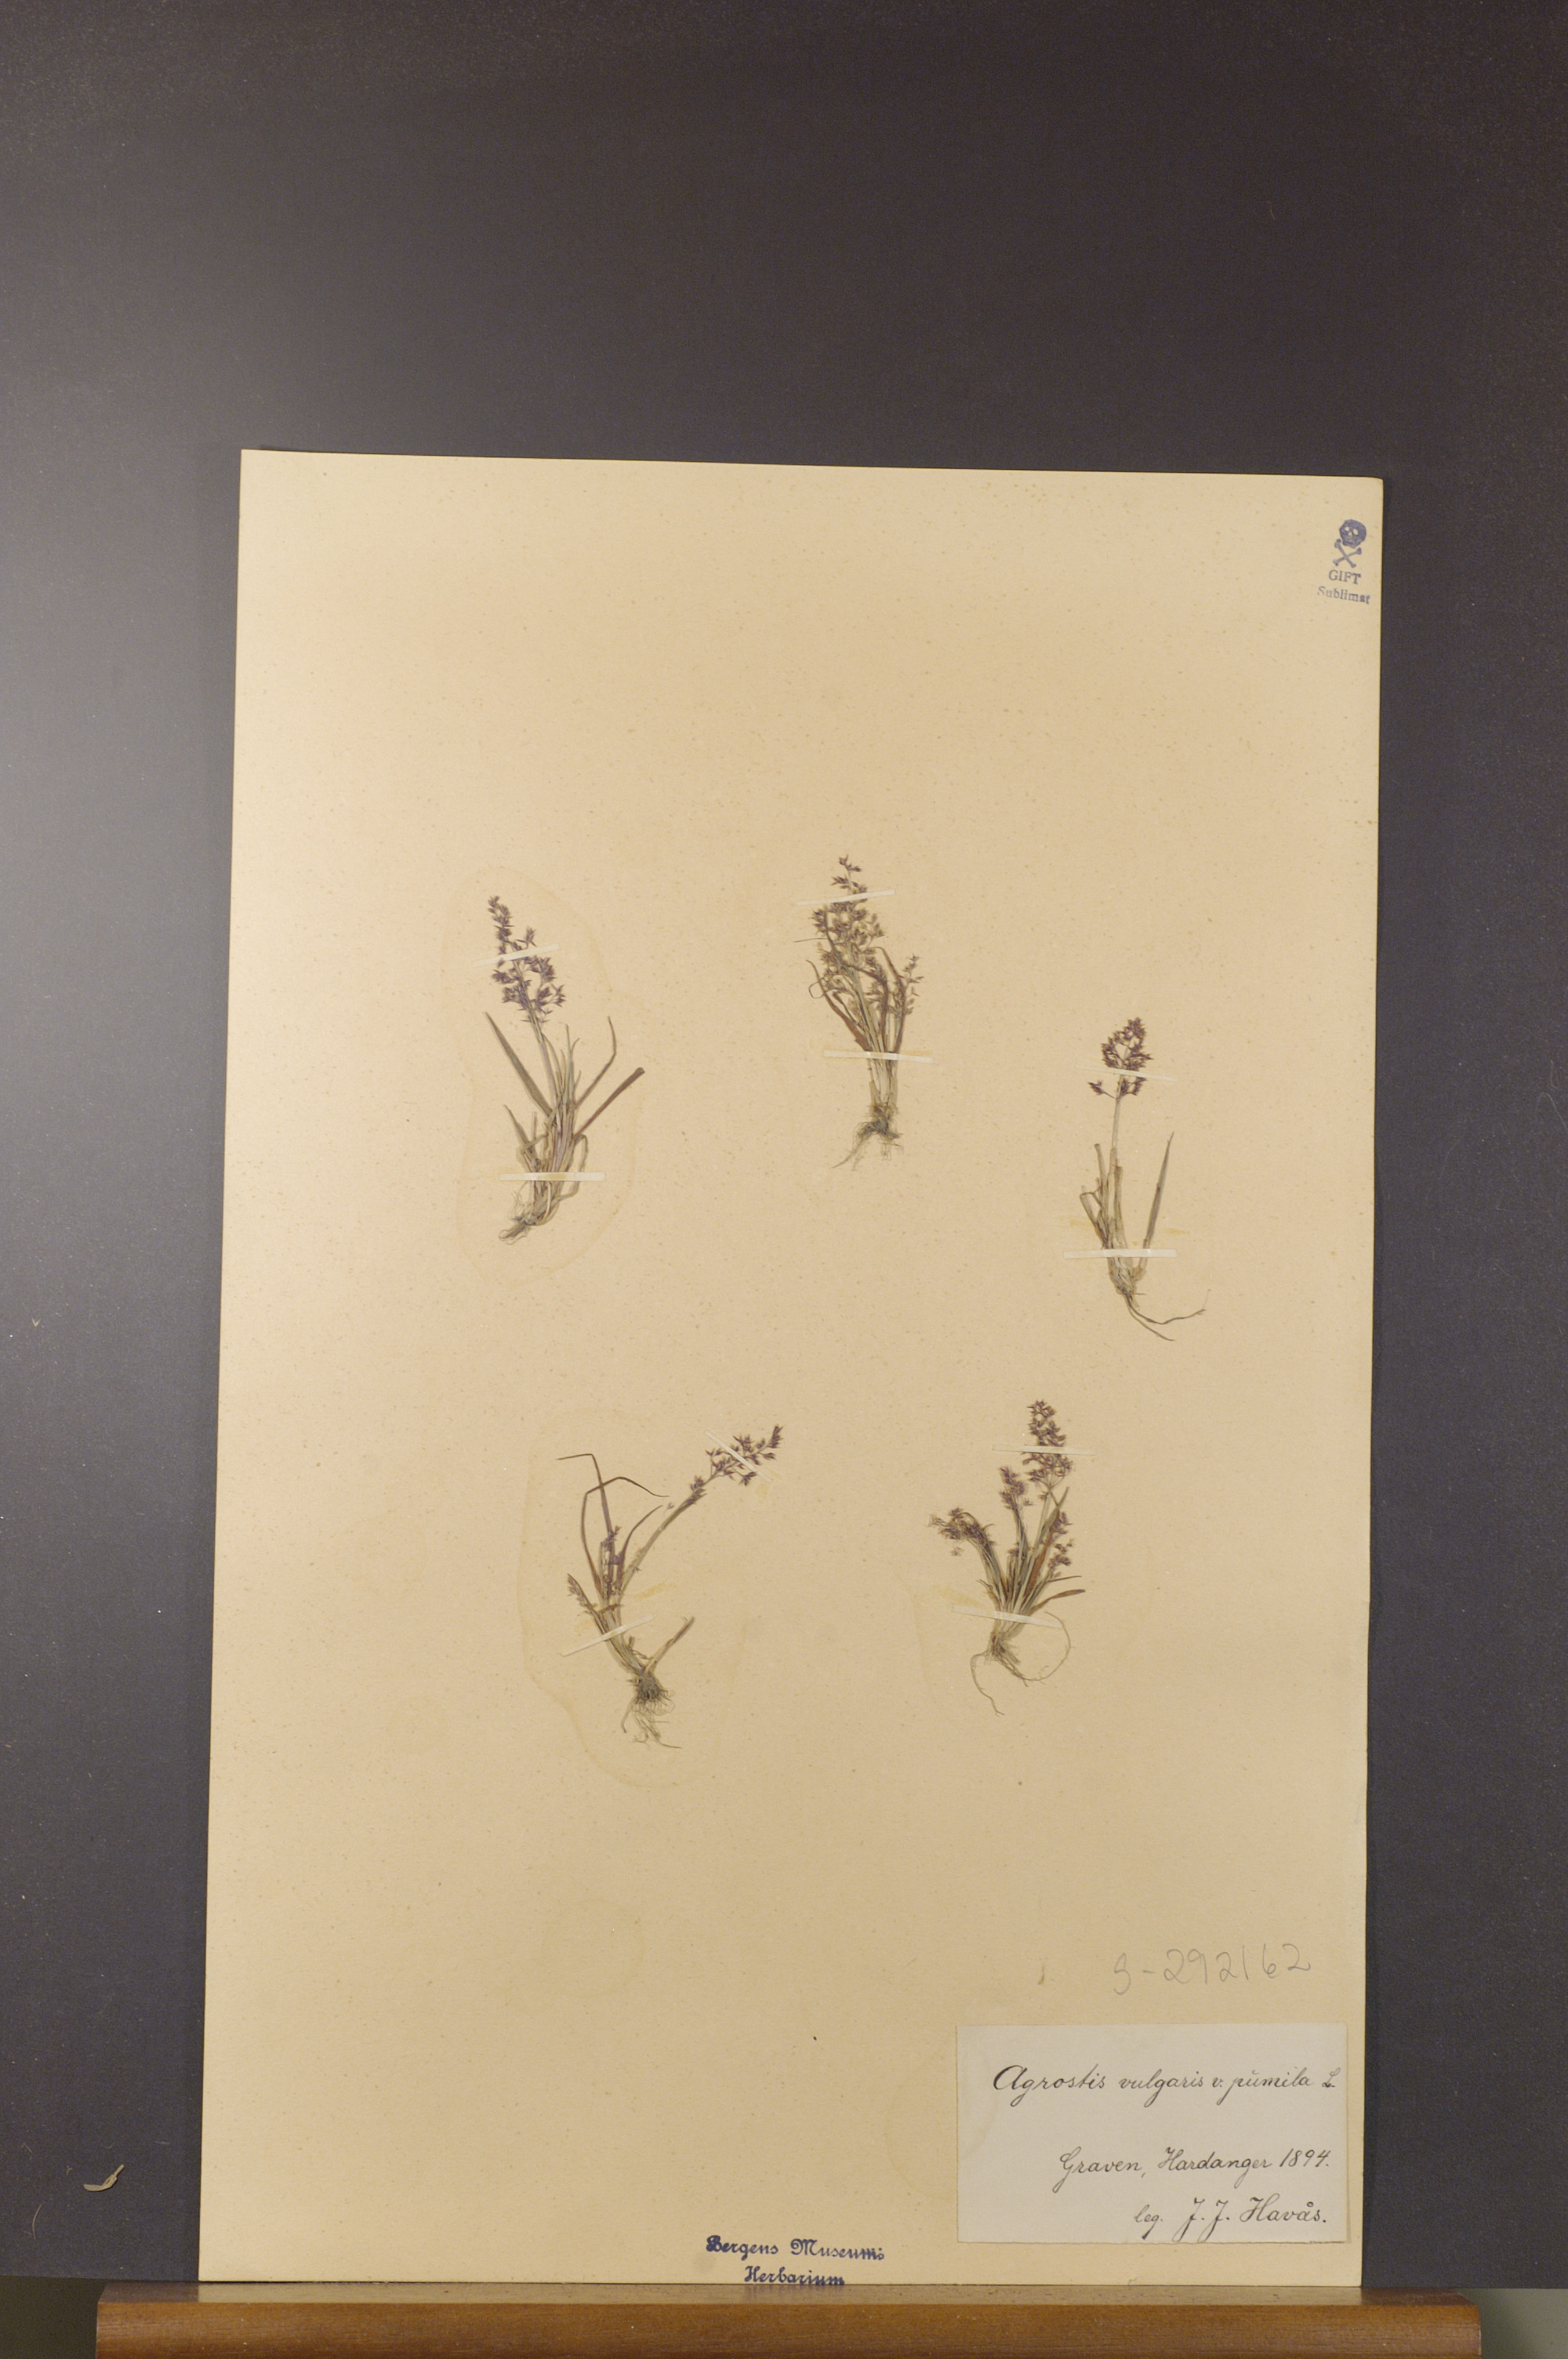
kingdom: Plantae
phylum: Tracheophyta
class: Liliopsida
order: Poales
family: Poaceae
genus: Agrostis
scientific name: Agrostis capillaris
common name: Colonial bentgrass
